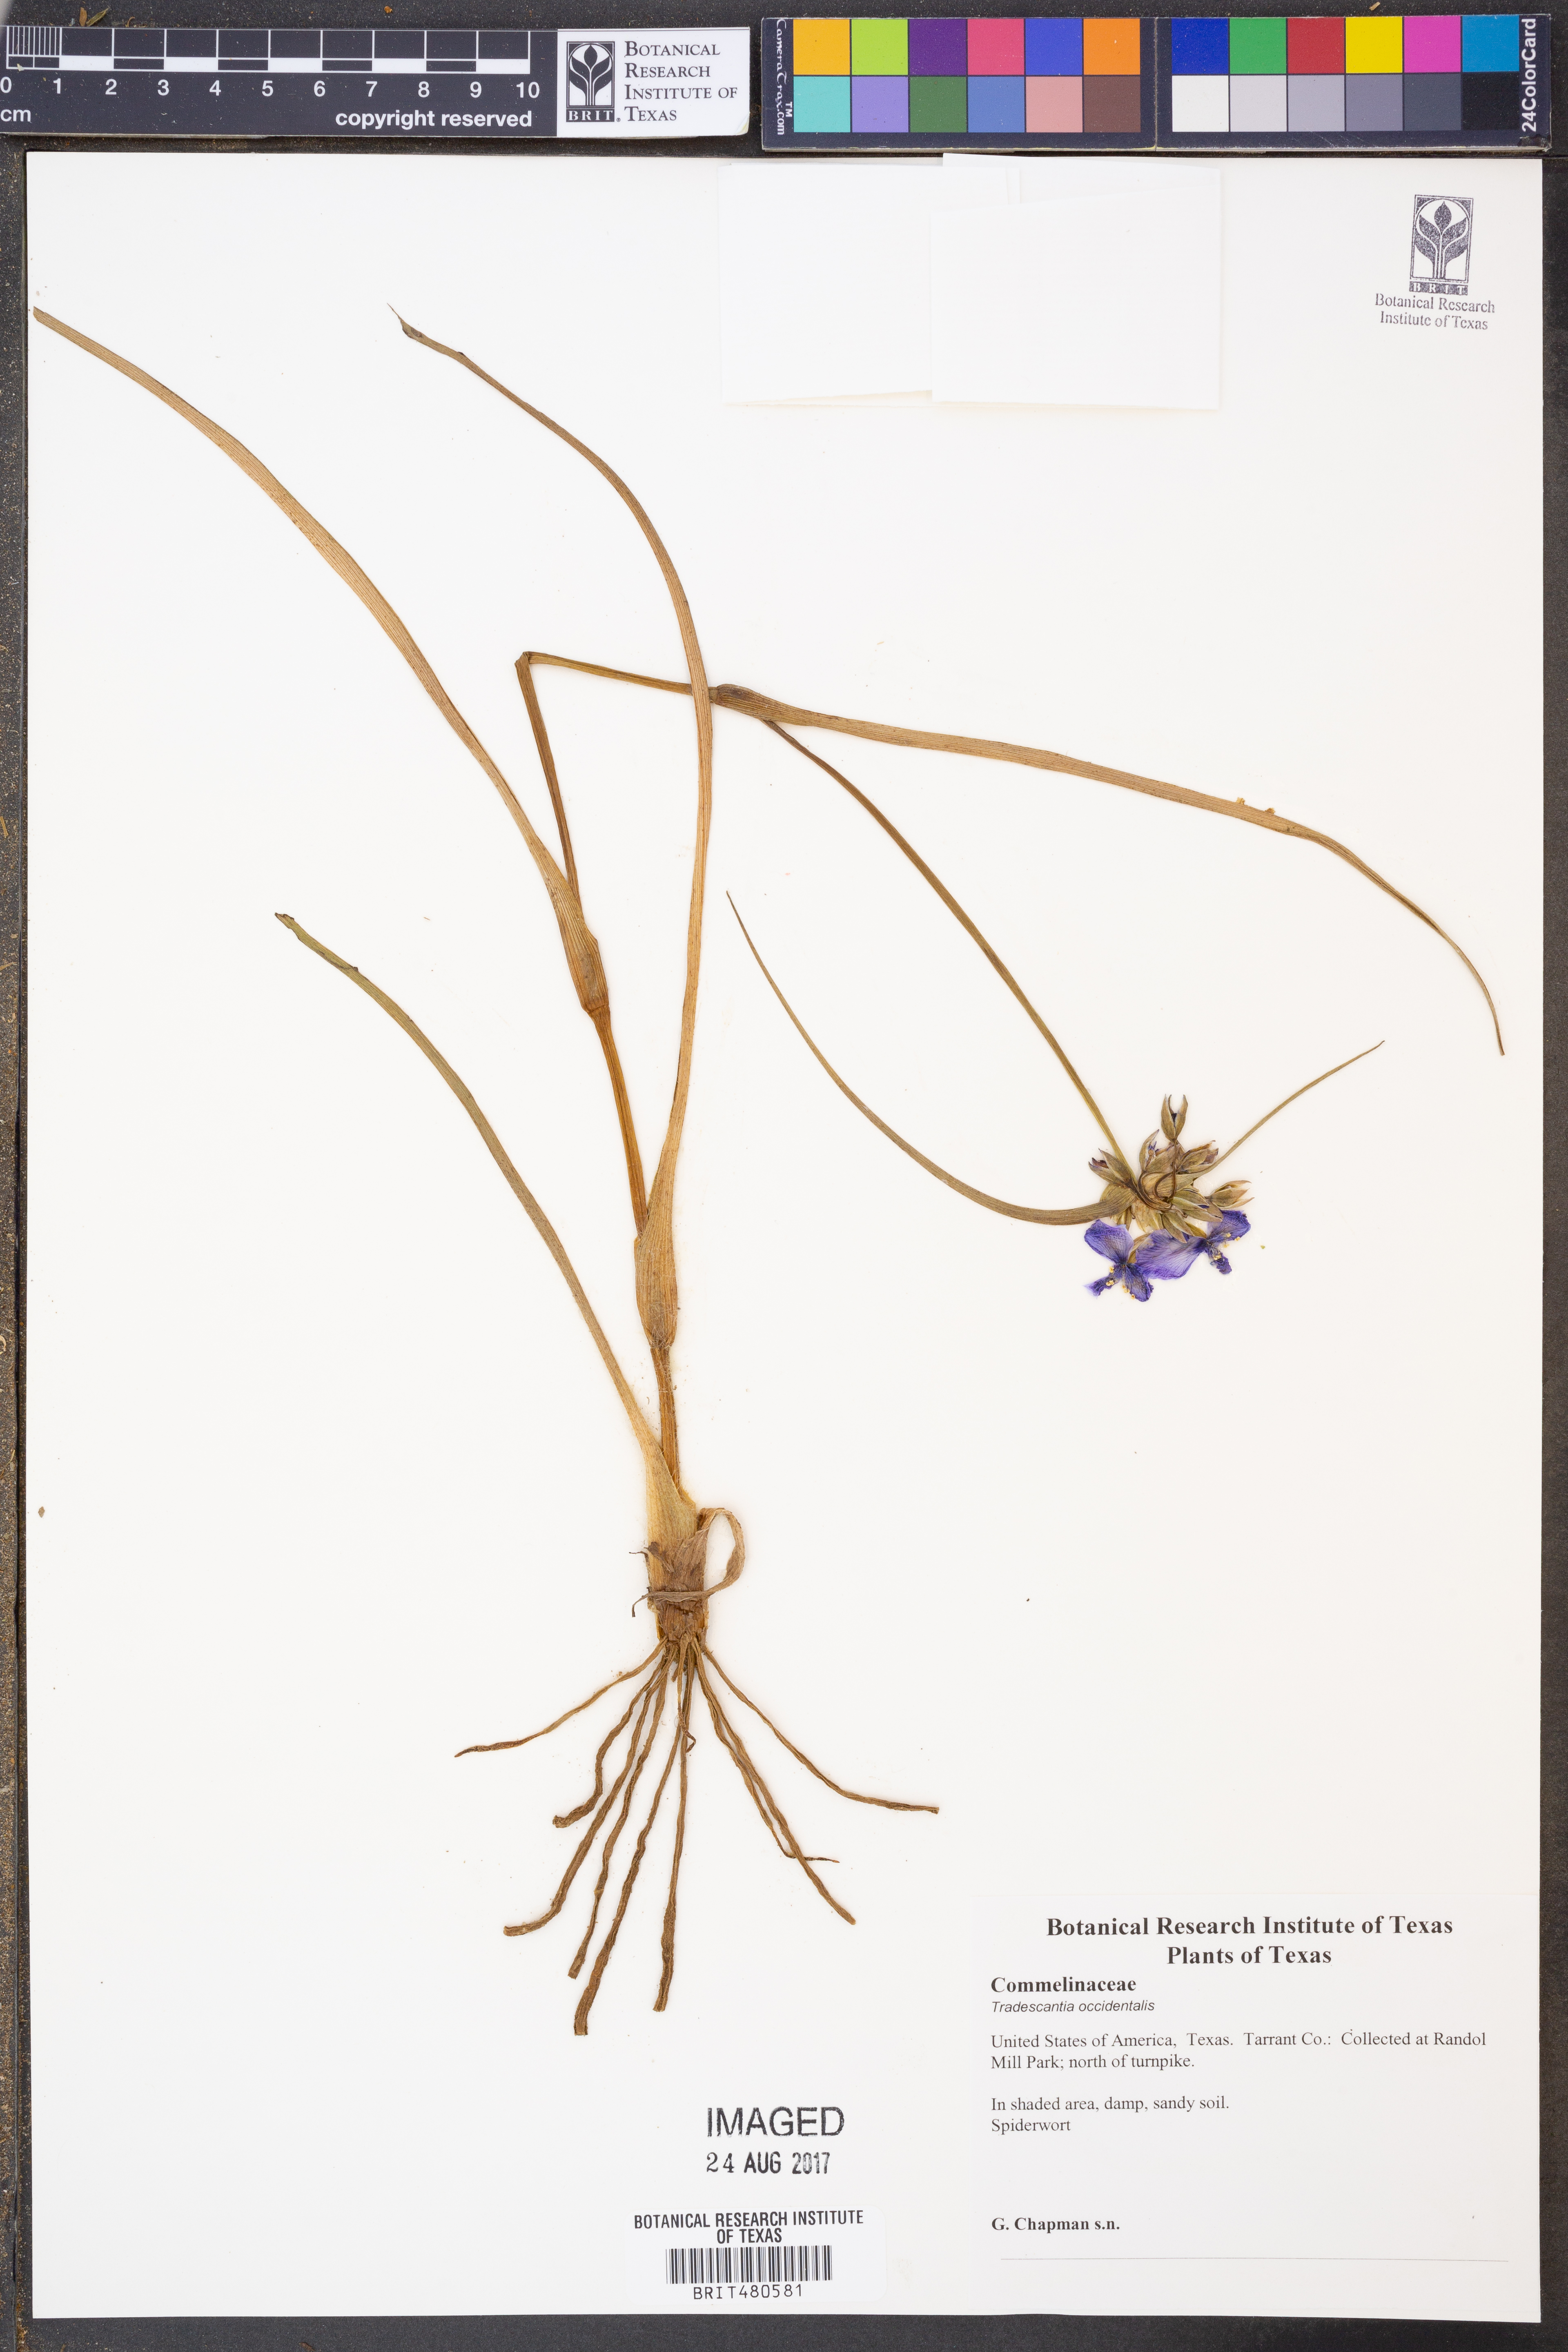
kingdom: Plantae
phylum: Tracheophyta
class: Liliopsida
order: Commelinales
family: Commelinaceae
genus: Tradescantia
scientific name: Tradescantia occidentalis
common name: Prairie spiderwort
